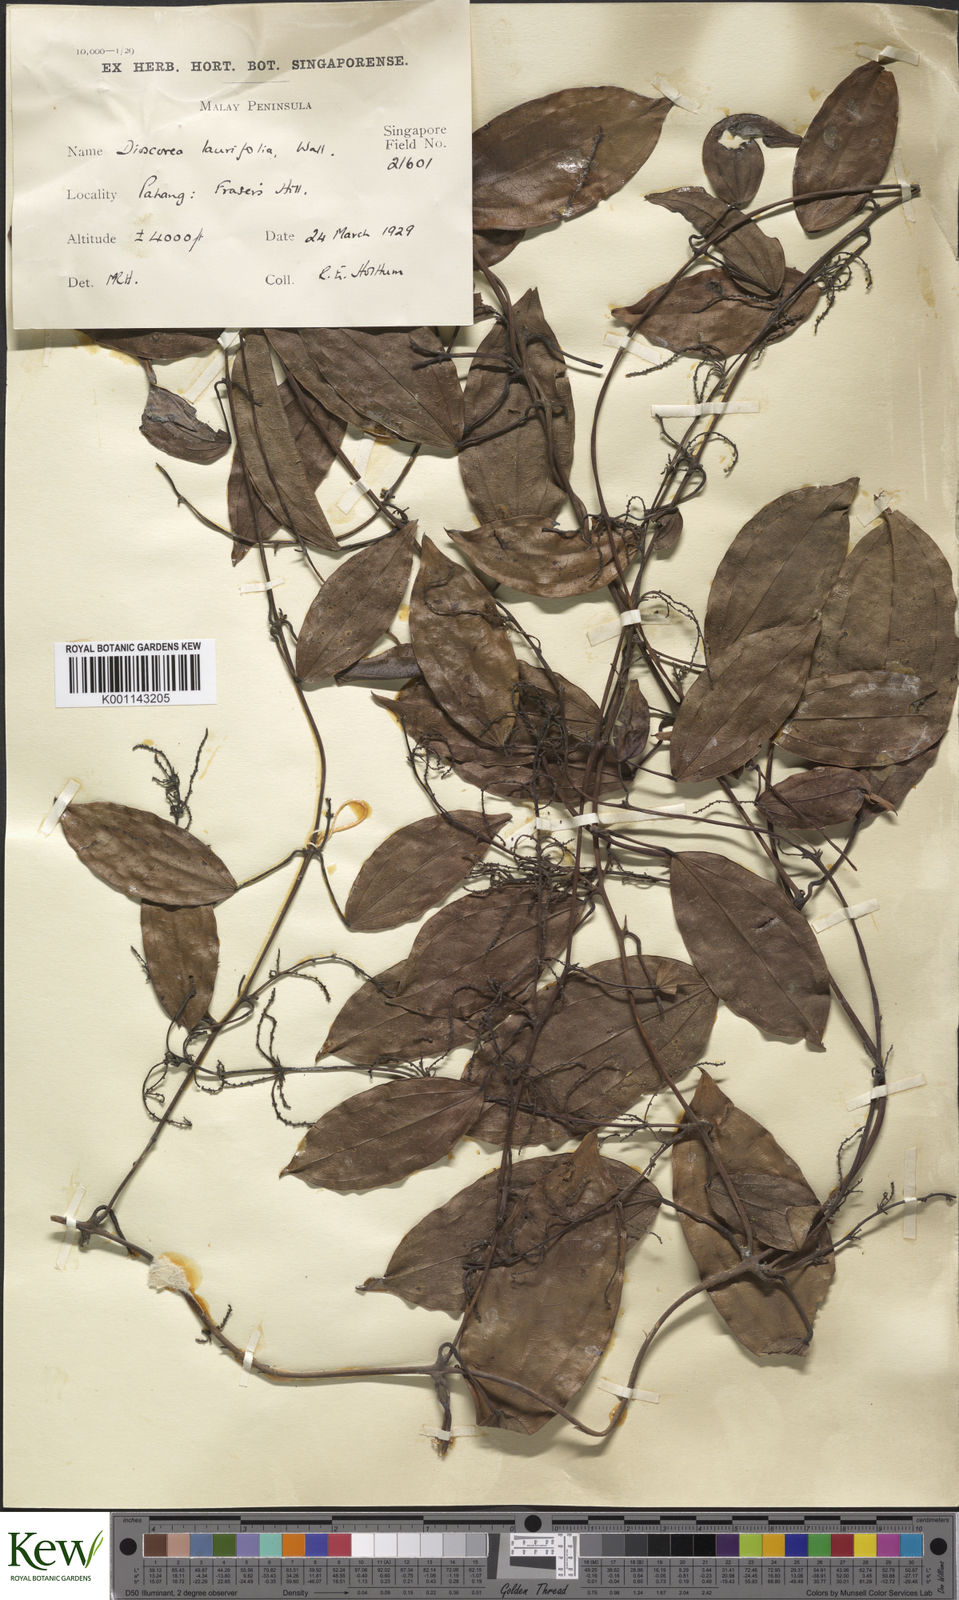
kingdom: Plantae
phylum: Tracheophyta
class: Liliopsida
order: Dioscoreales
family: Dioscoreaceae
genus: Dioscorea
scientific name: Dioscorea laurifolia
